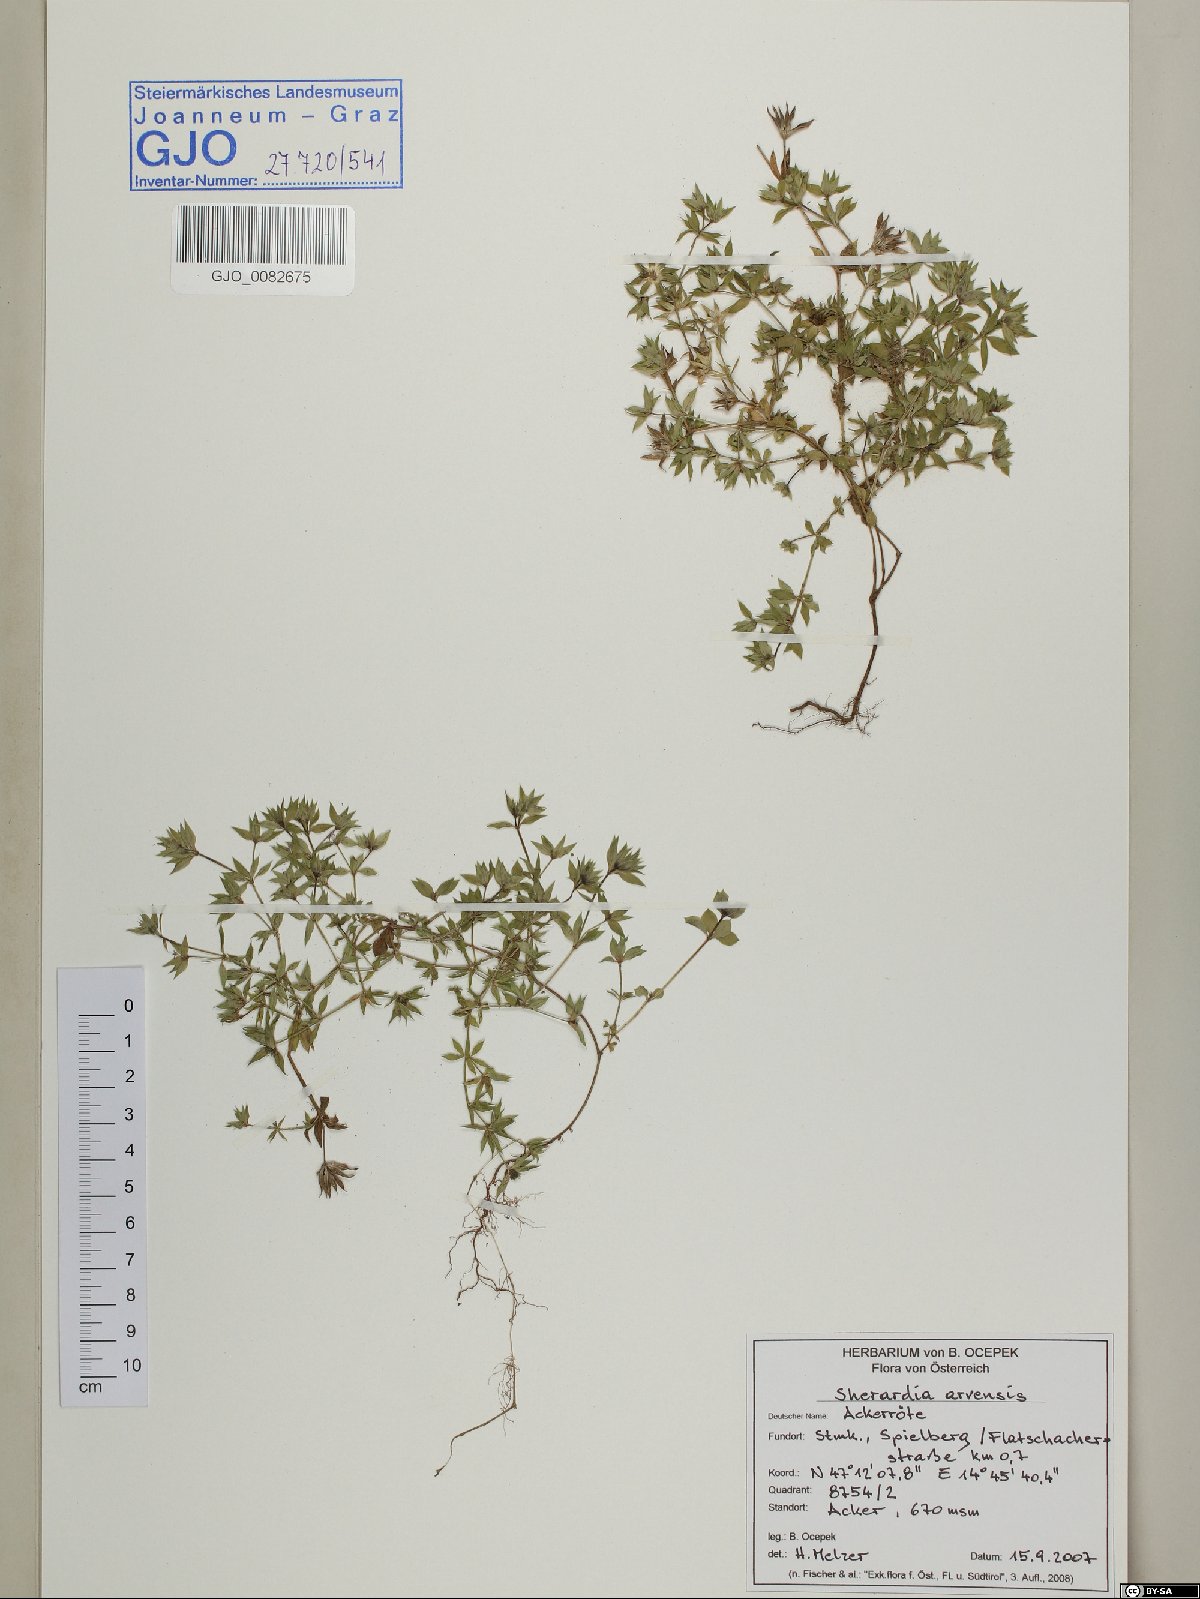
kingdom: Plantae
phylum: Tracheophyta
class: Magnoliopsida
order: Gentianales
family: Rubiaceae
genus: Sherardia
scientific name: Sherardia arvensis
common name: Field madder
